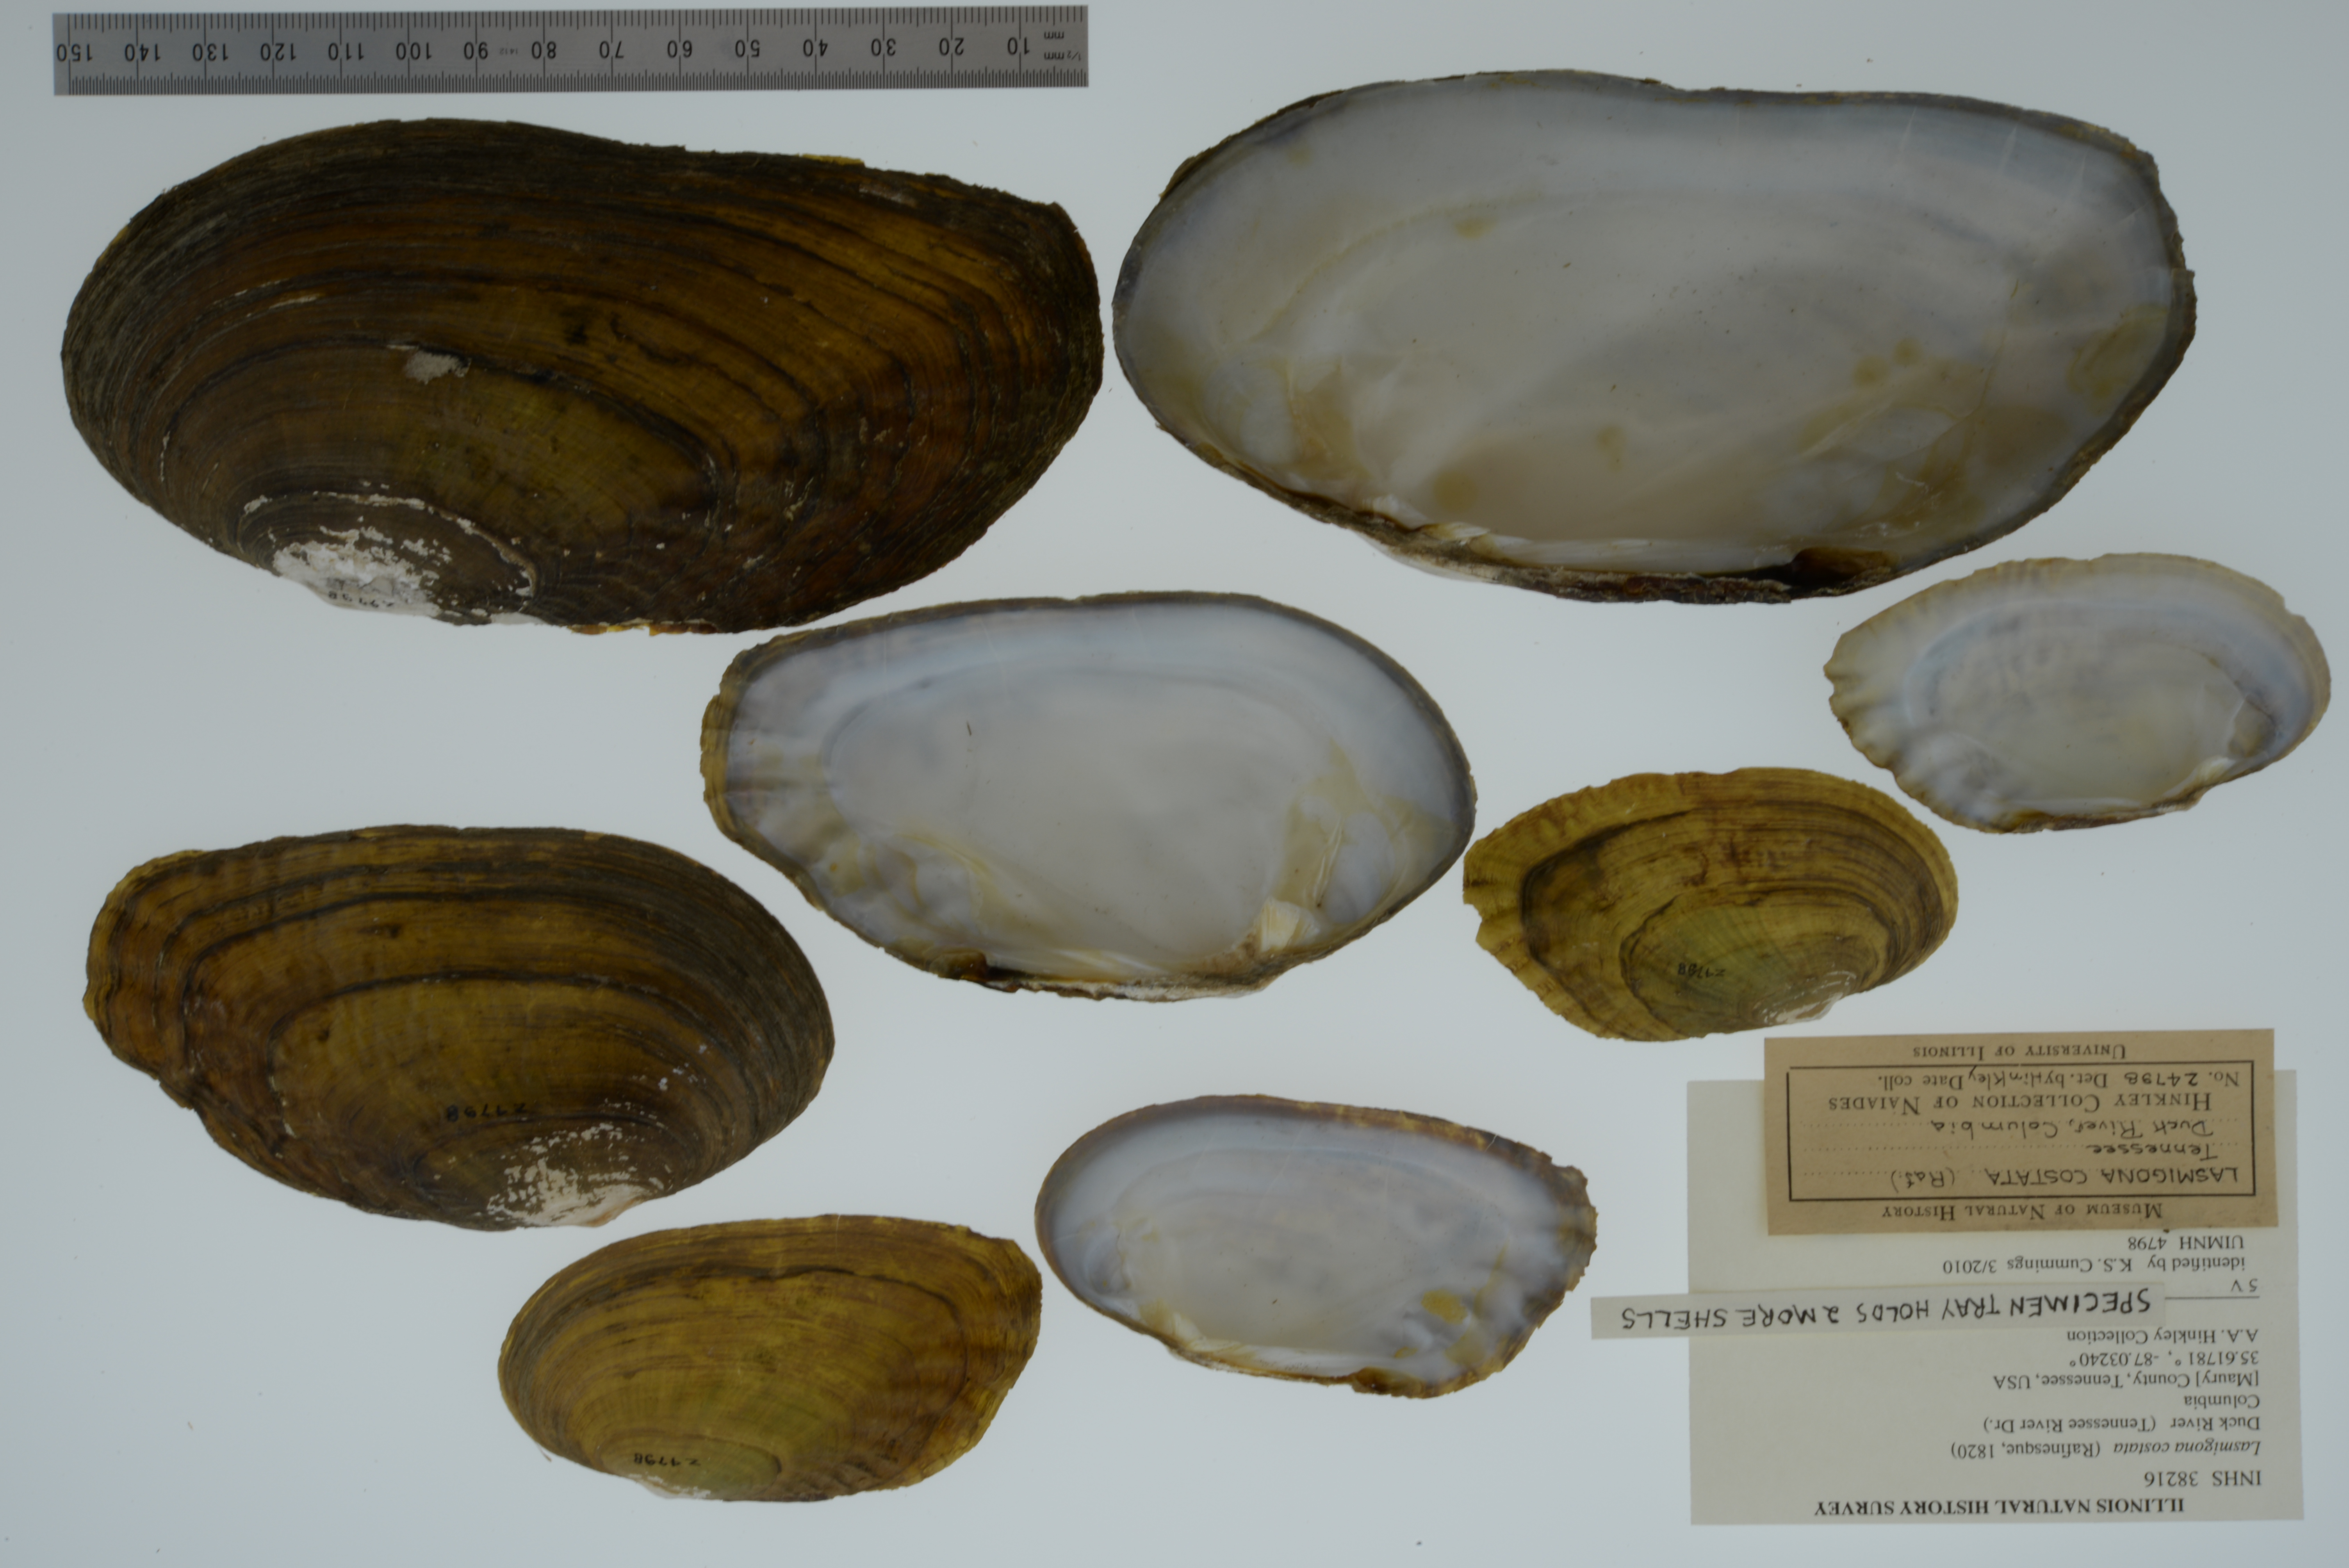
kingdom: Animalia
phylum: Mollusca
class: Bivalvia
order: Unionida
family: Unionidae
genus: Lasmigona
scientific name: Lasmigona costata
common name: Flutedshell
